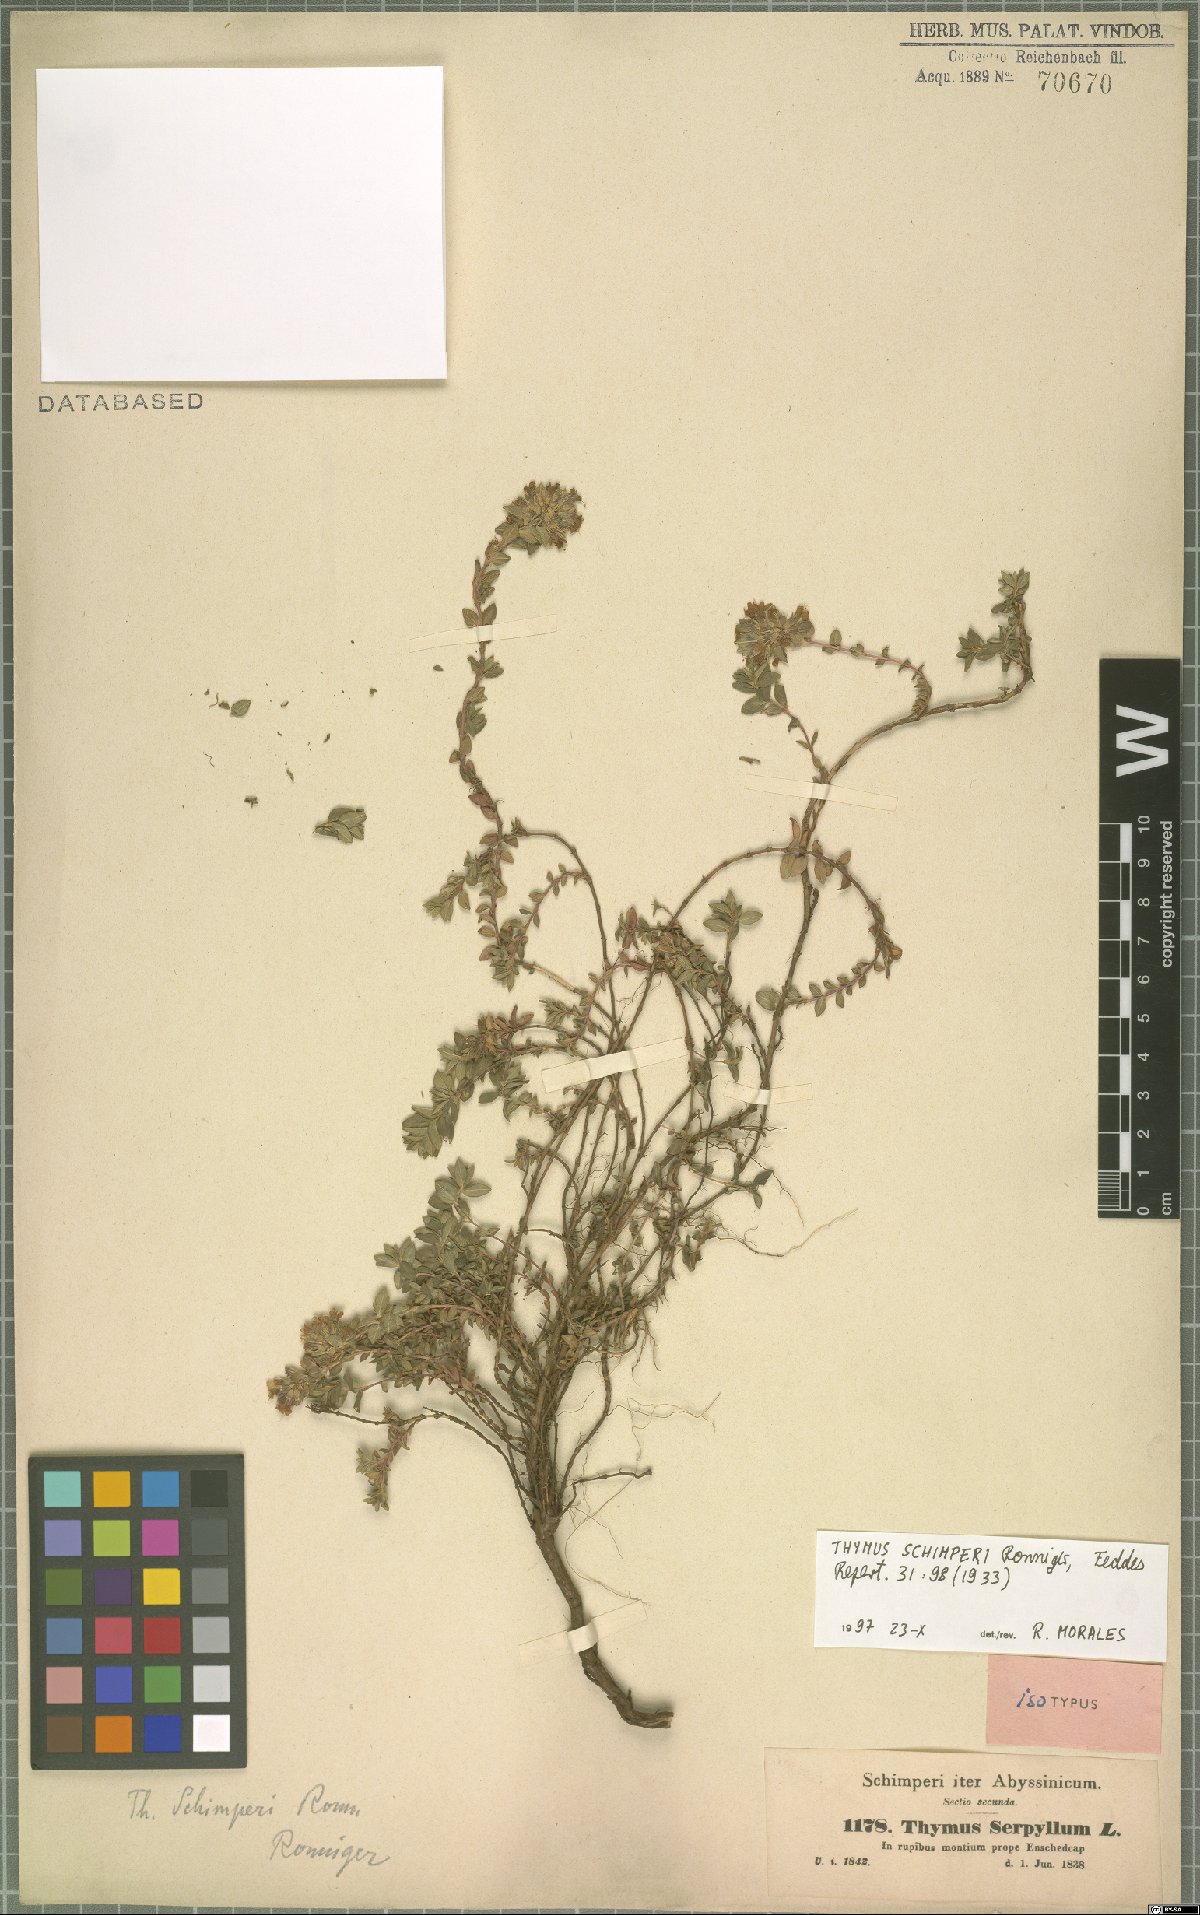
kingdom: Plantae
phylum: Tracheophyta
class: Magnoliopsida
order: Lamiales
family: Lamiaceae
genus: Thymus
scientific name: Thymus schimperi
